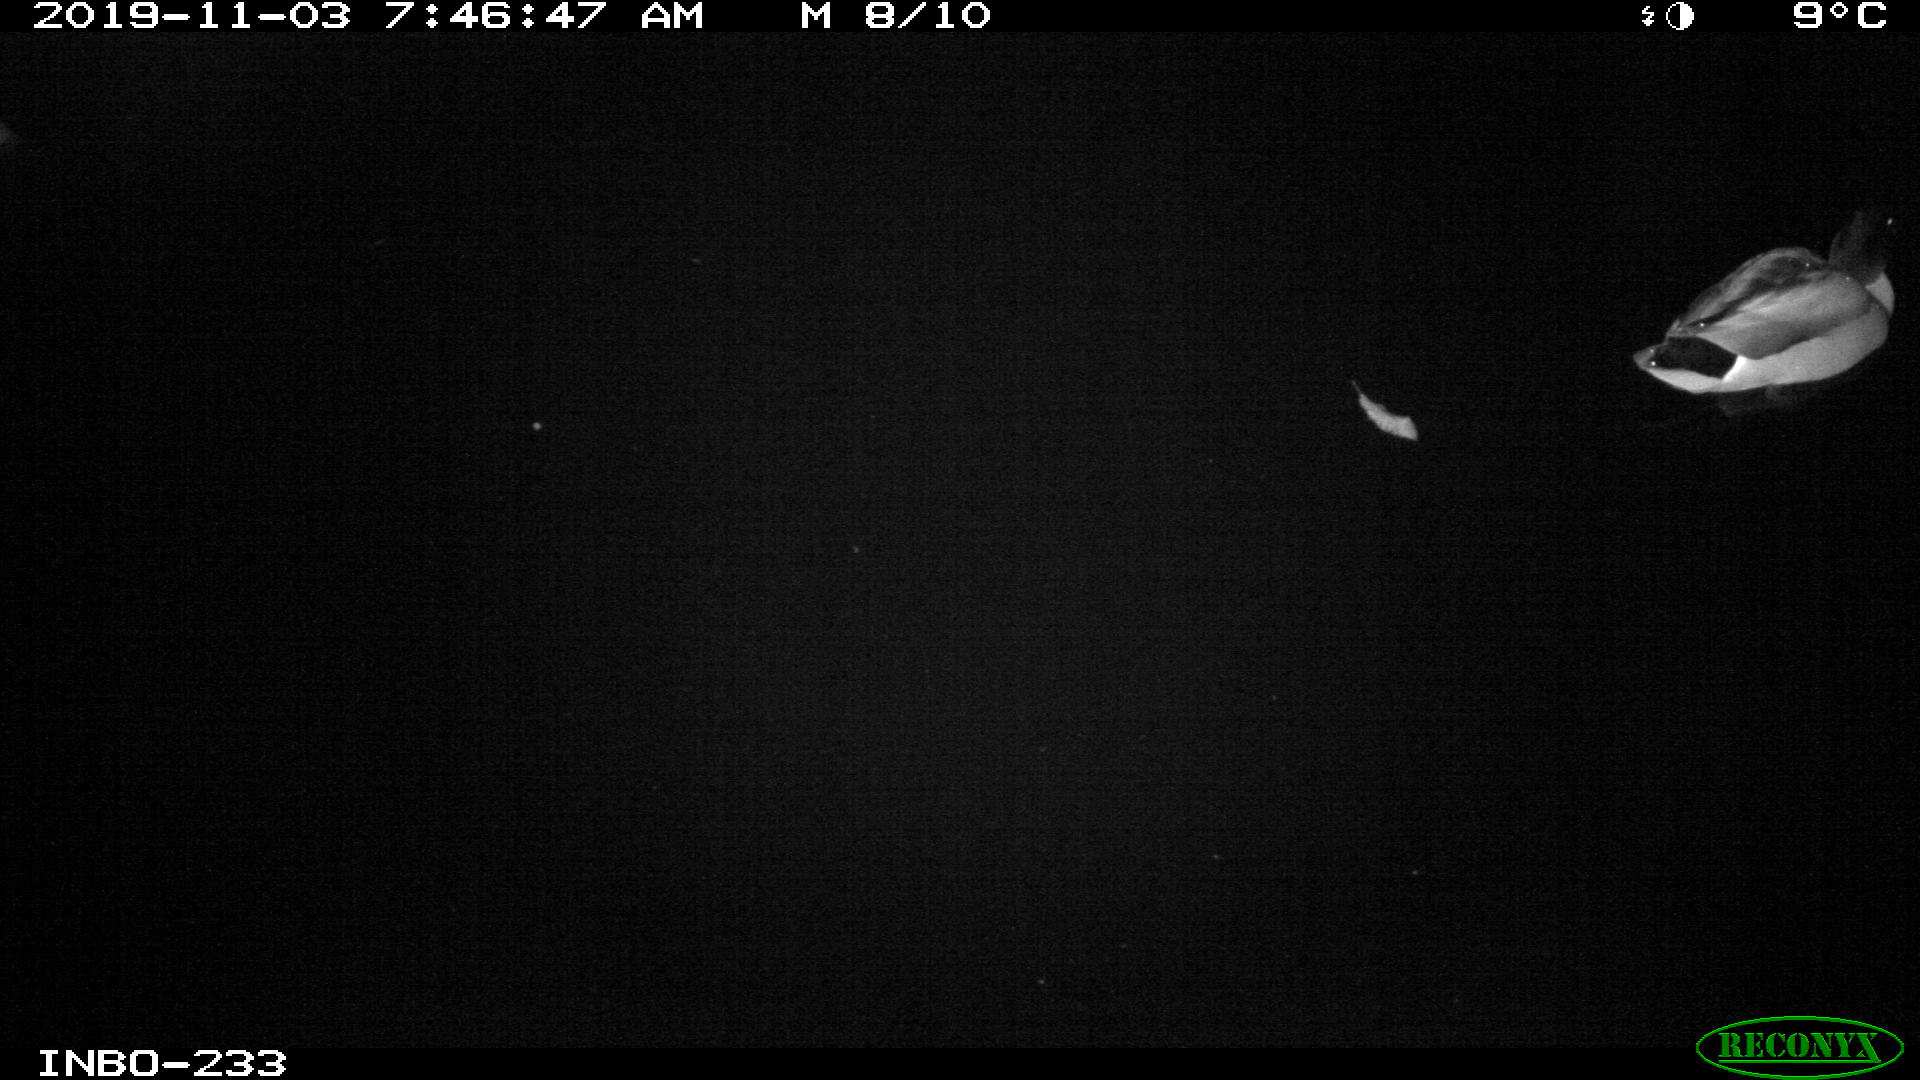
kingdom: Animalia
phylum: Chordata
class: Aves
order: Anseriformes
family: Anatidae
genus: Anas
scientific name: Anas platyrhynchos
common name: Mallard
